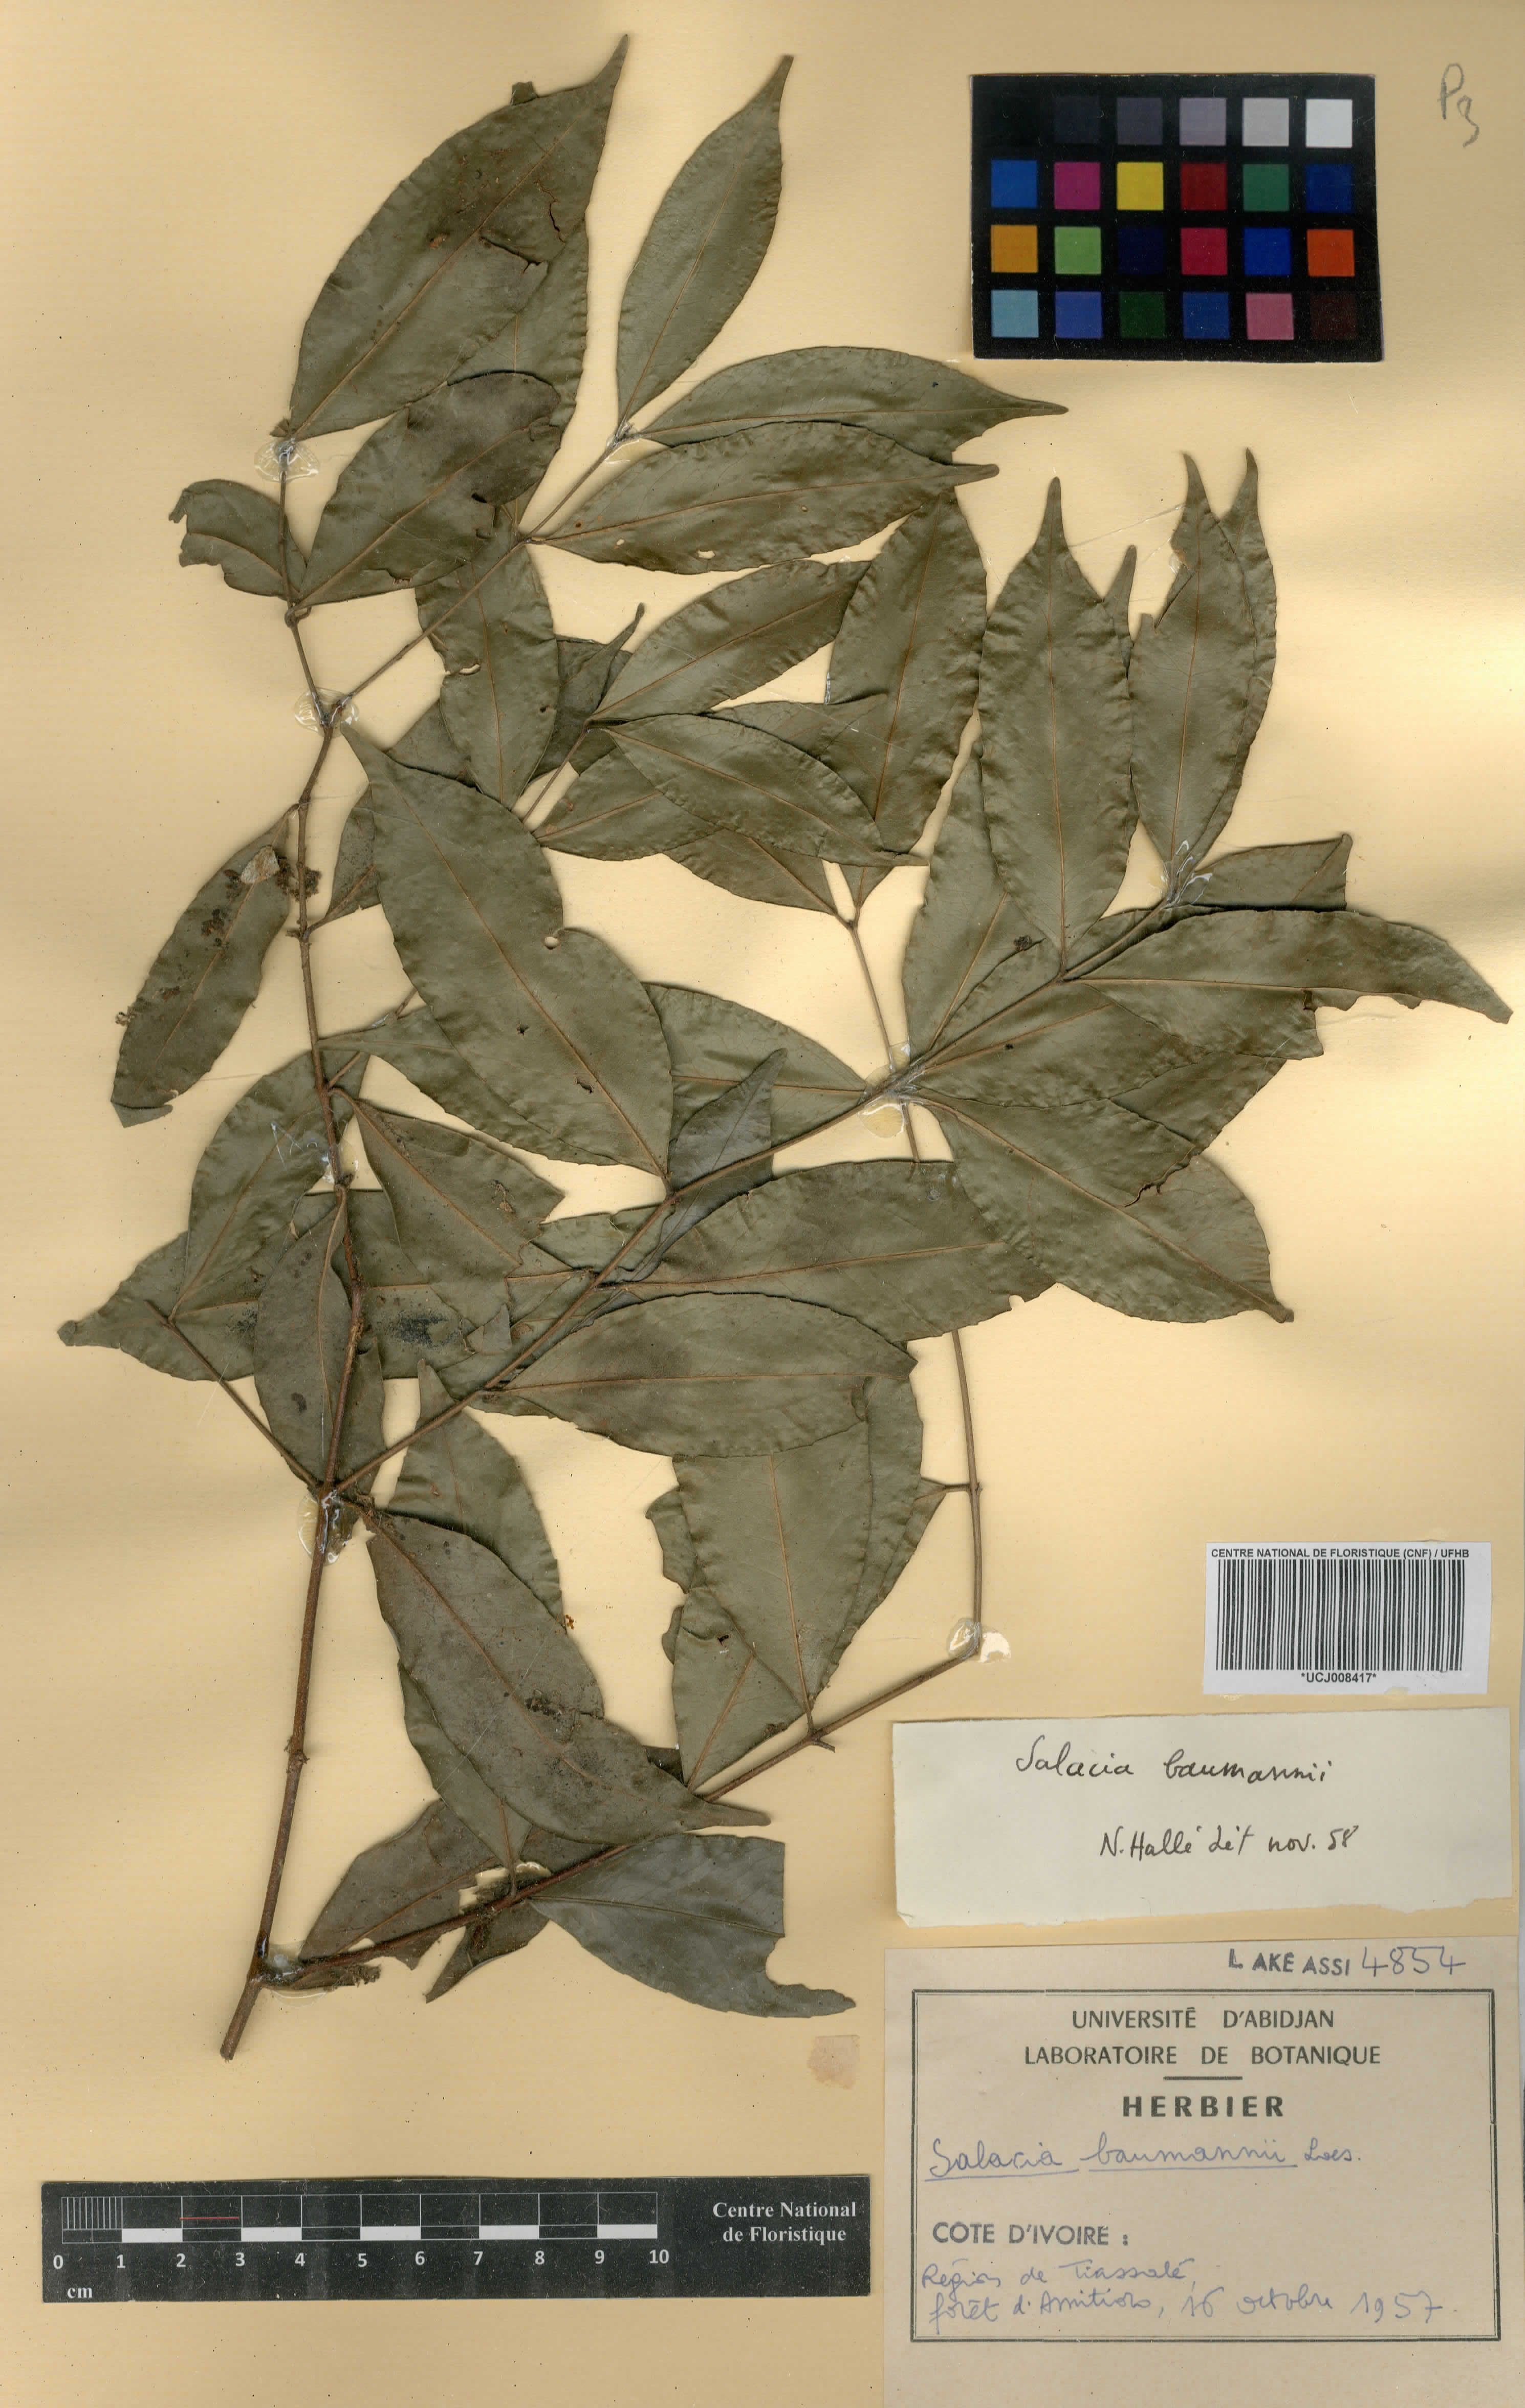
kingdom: Plantae
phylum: Tracheophyta
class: Magnoliopsida
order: Celastrales
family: Celastraceae
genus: Salacia
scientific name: Salacia leptoclada
